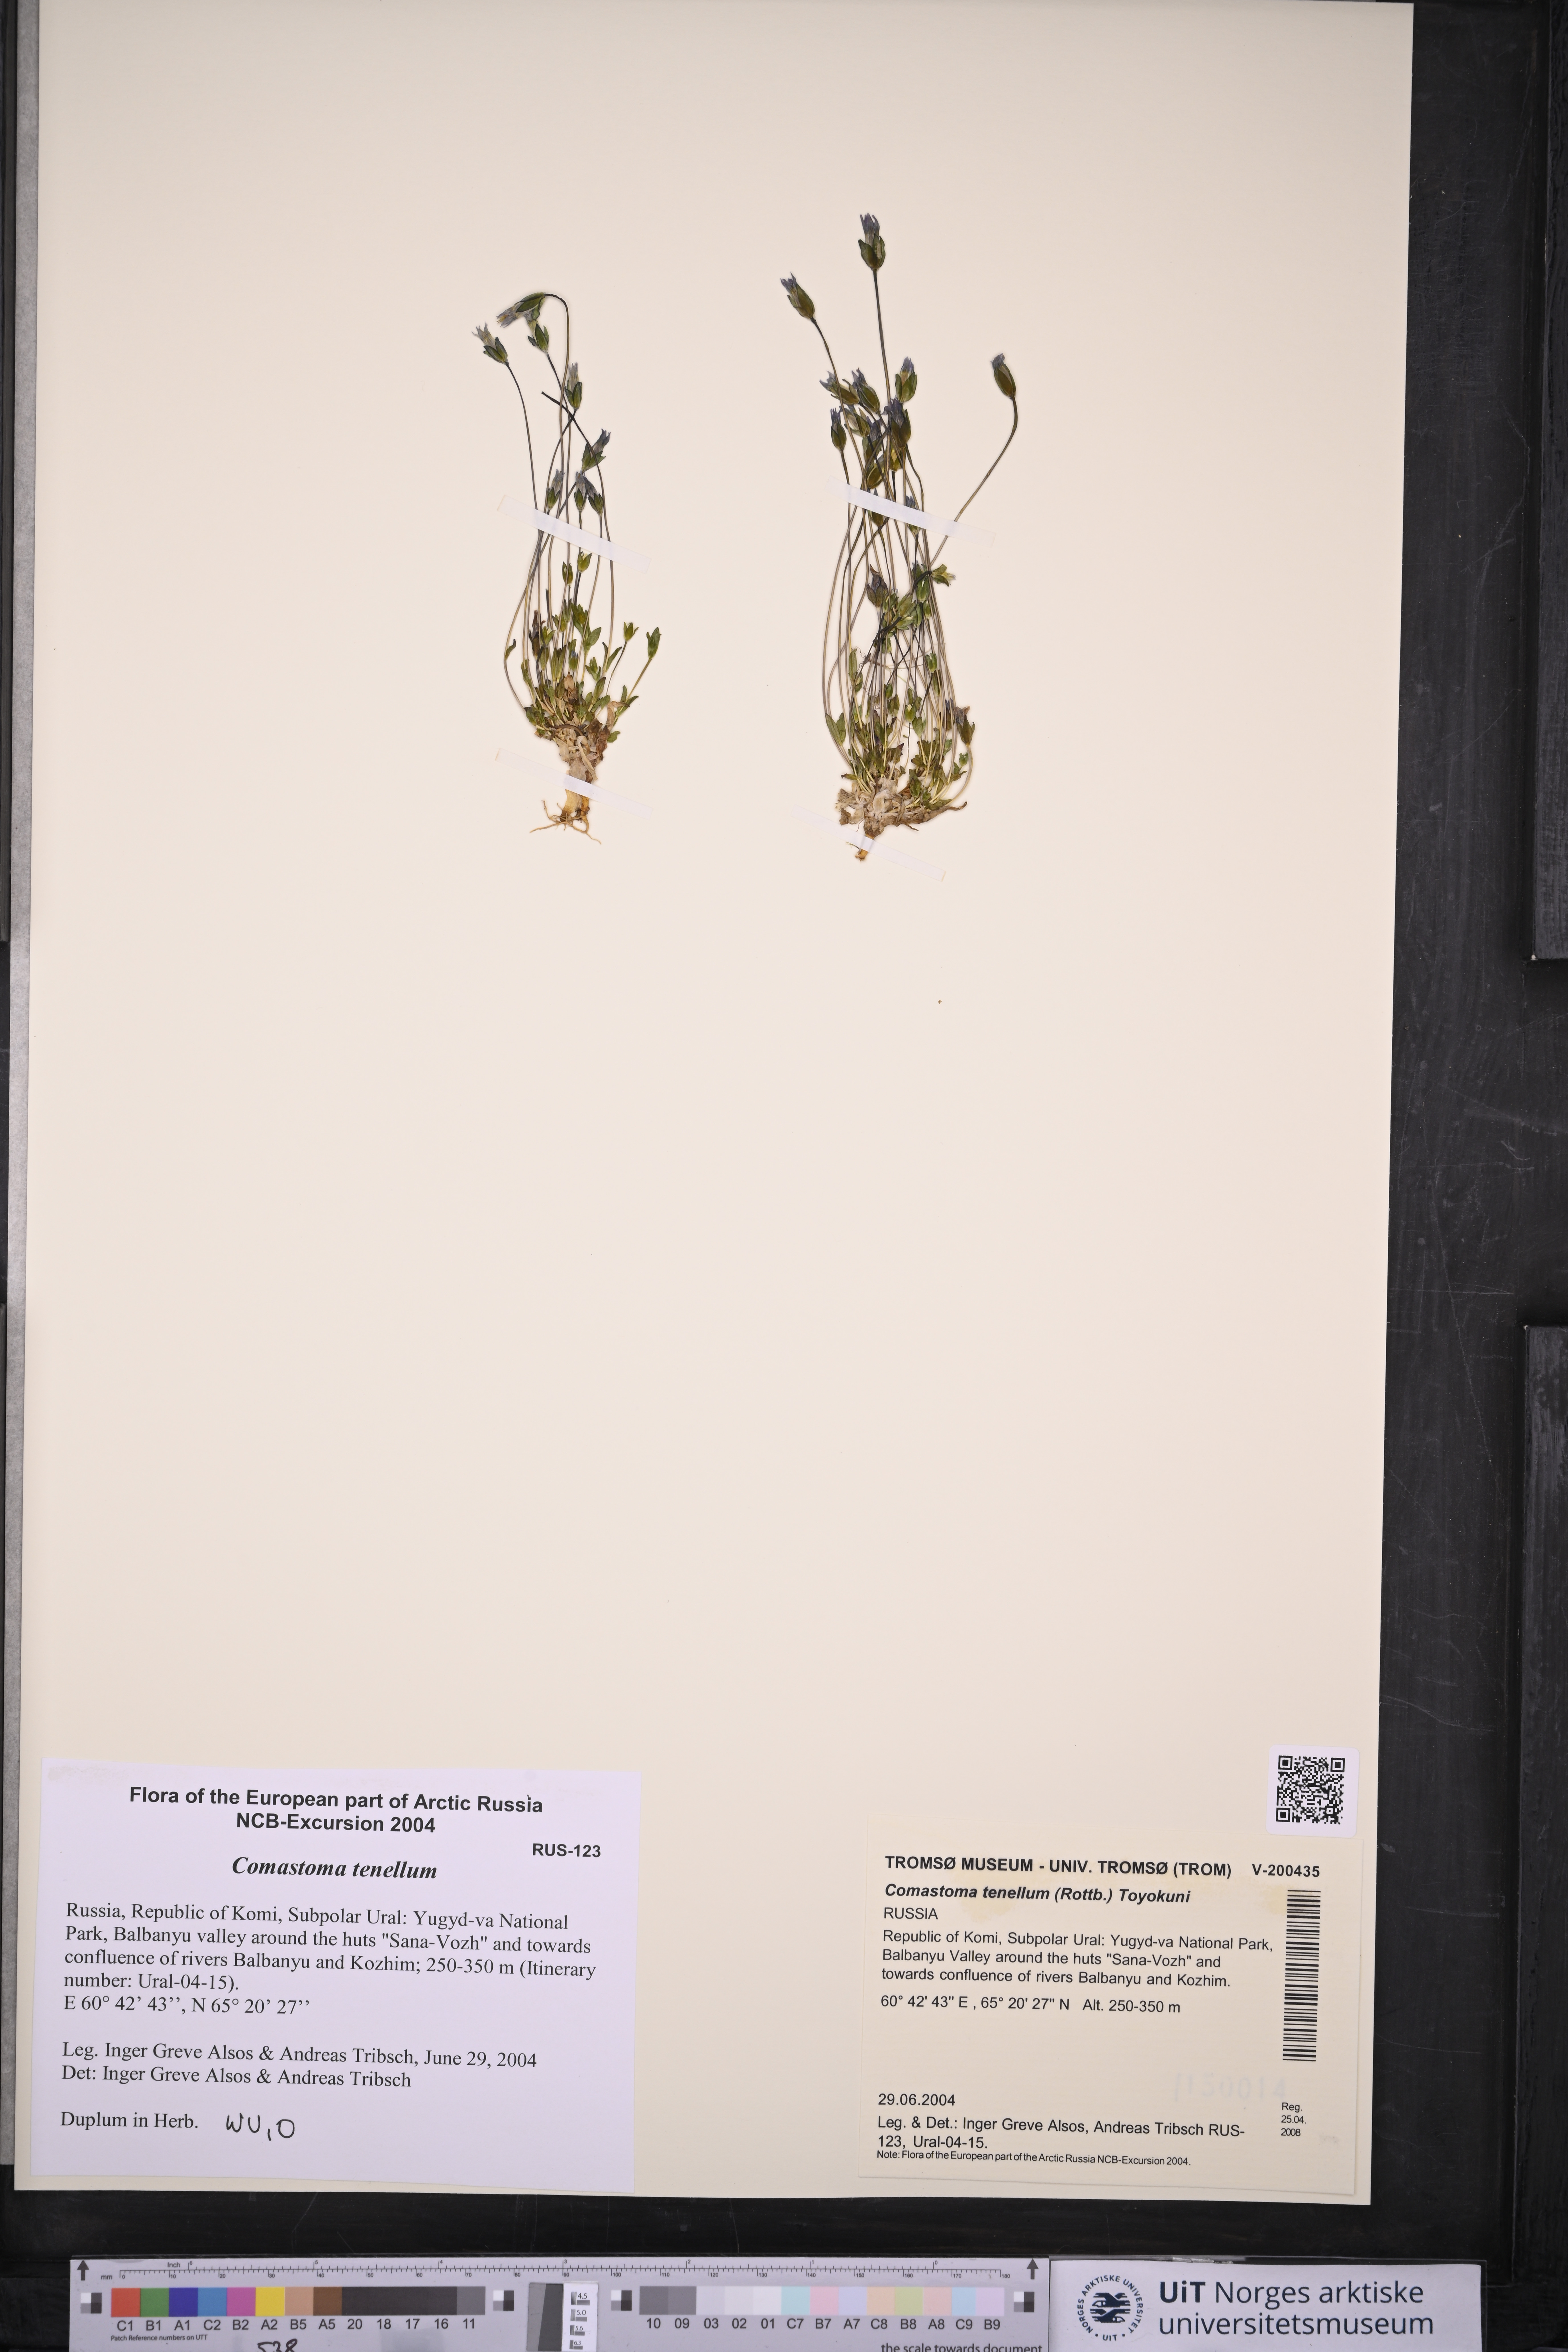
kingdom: Plantae
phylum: Tracheophyta
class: Magnoliopsida
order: Gentianales
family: Gentianaceae
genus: Comastoma
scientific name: Comastoma tenellum
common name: Dane's dwarf gentian
